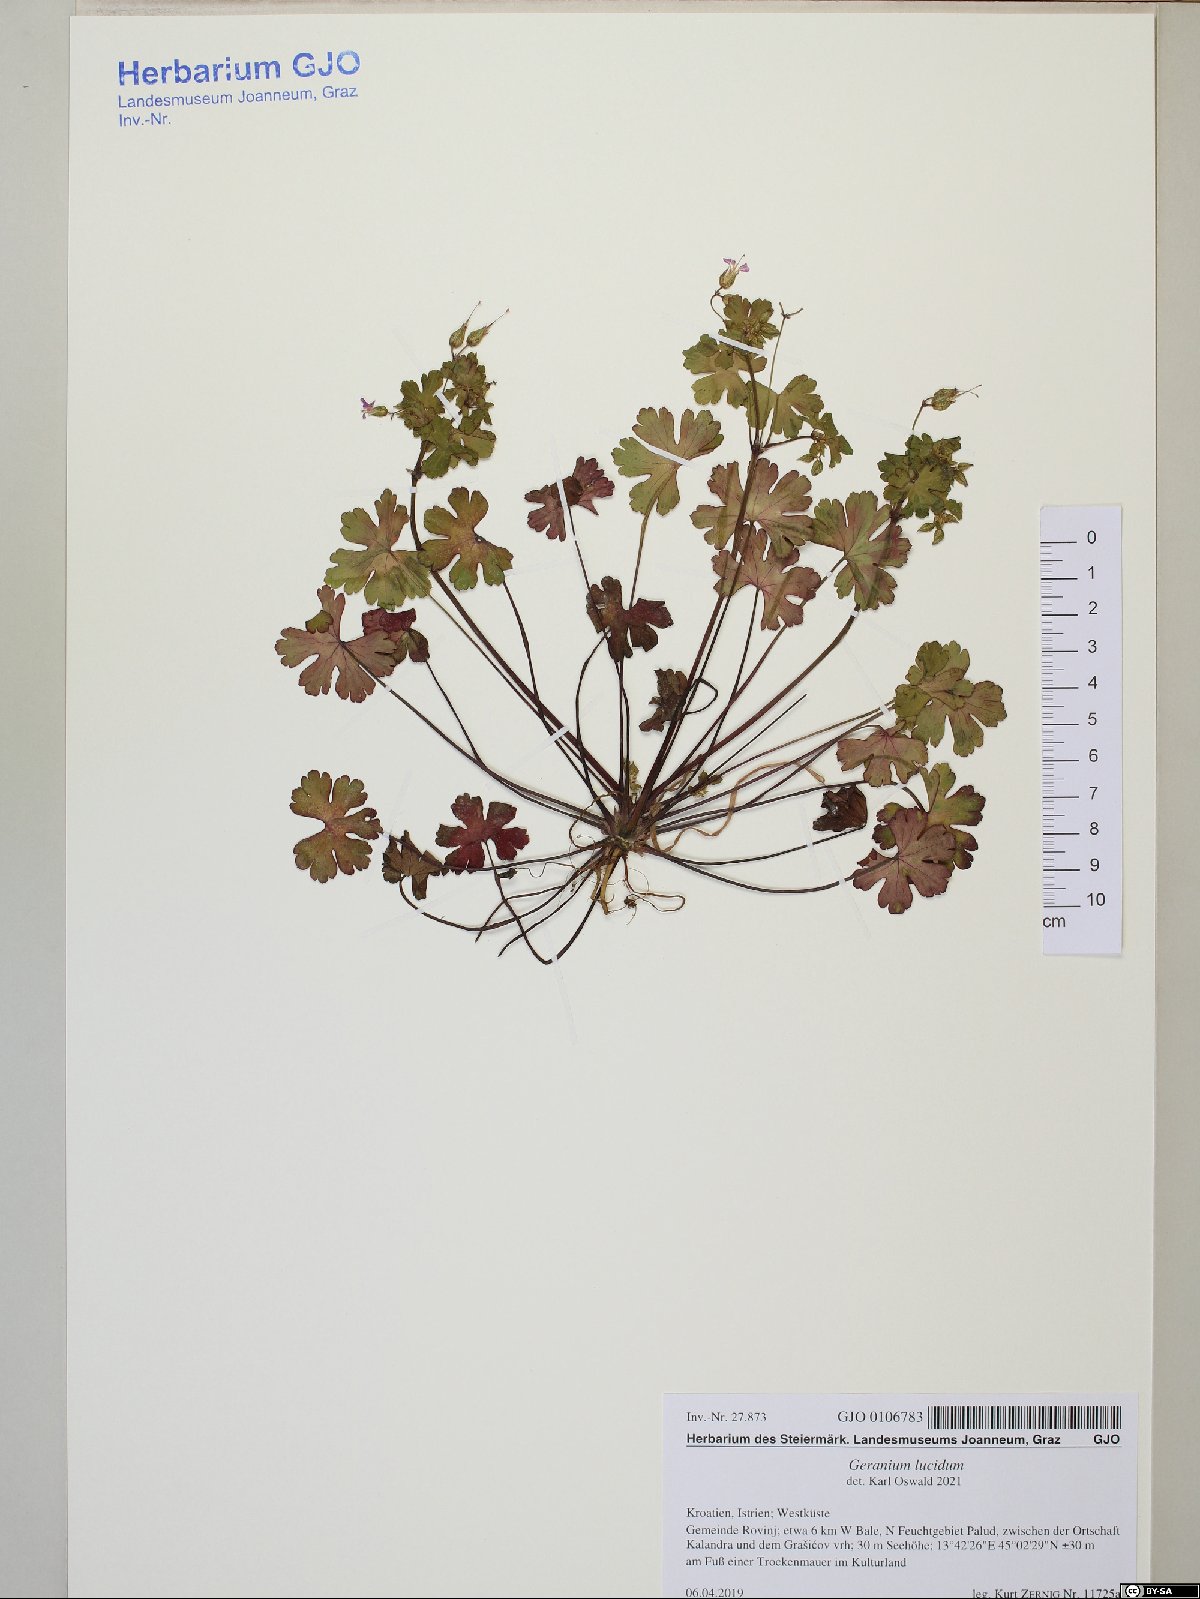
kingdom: Plantae
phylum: Tracheophyta
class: Magnoliopsida
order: Geraniales
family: Geraniaceae
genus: Geranium
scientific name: Geranium lucidum
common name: Shining crane's-bill
